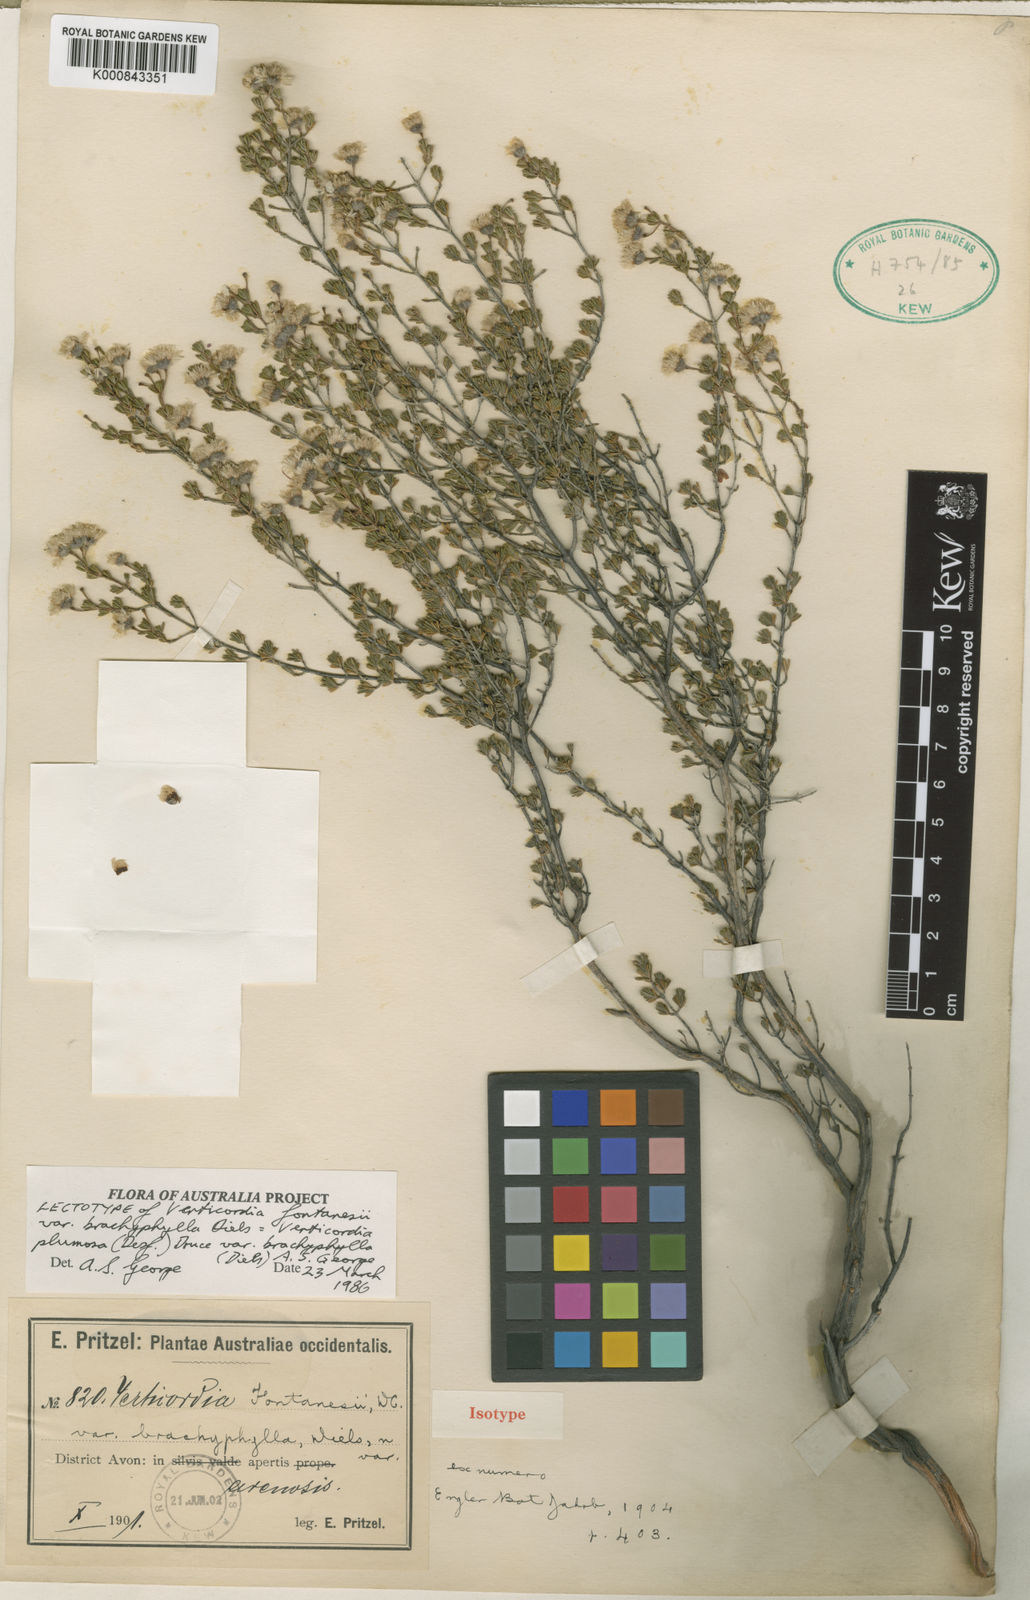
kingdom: Plantae
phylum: Tracheophyta
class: Magnoliopsida
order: Myrtales
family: Myrtaceae
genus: Verticordia
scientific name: Verticordia plumosa
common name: Plume feather-flower
